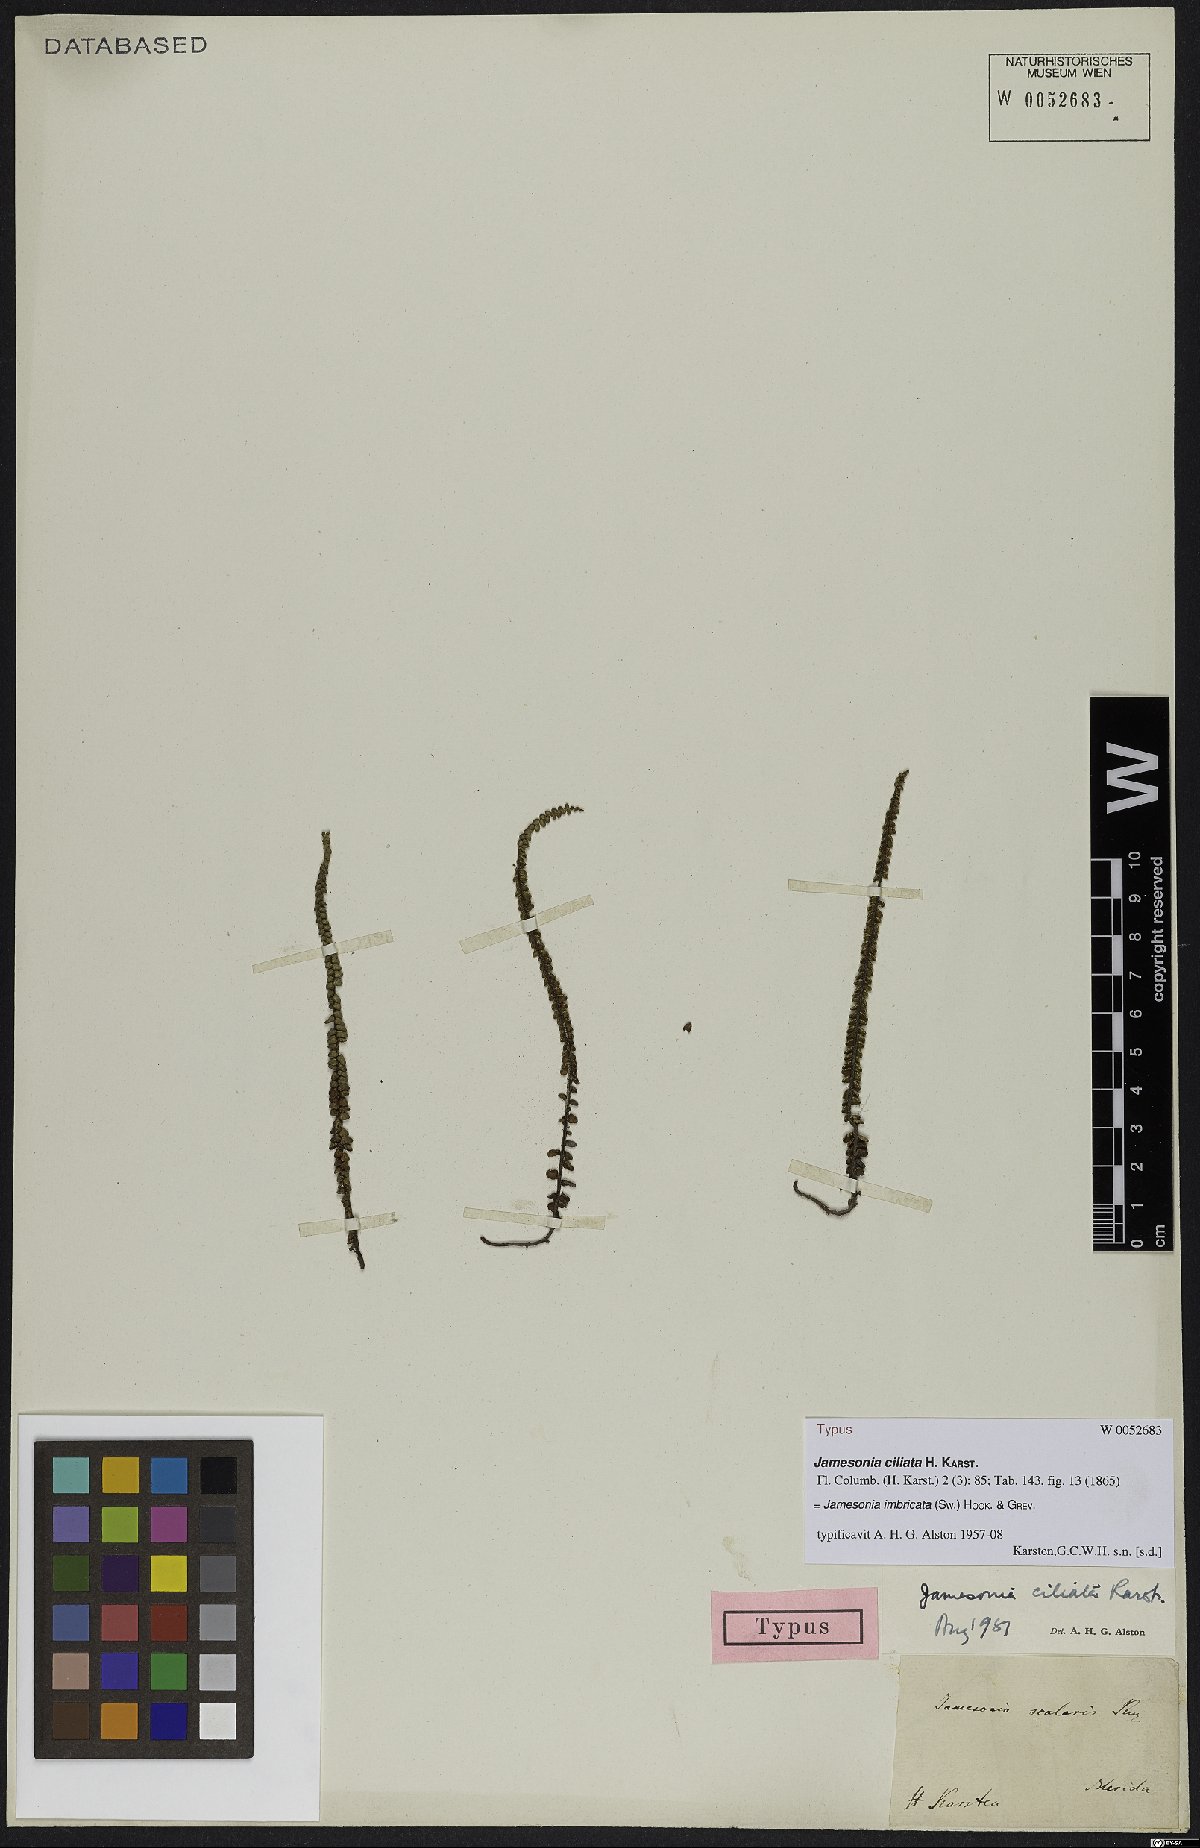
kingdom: Plantae
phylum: Tracheophyta
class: Polypodiopsida
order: Polypodiales
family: Pteridaceae
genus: Jamesonia
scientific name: Jamesonia imbricata
